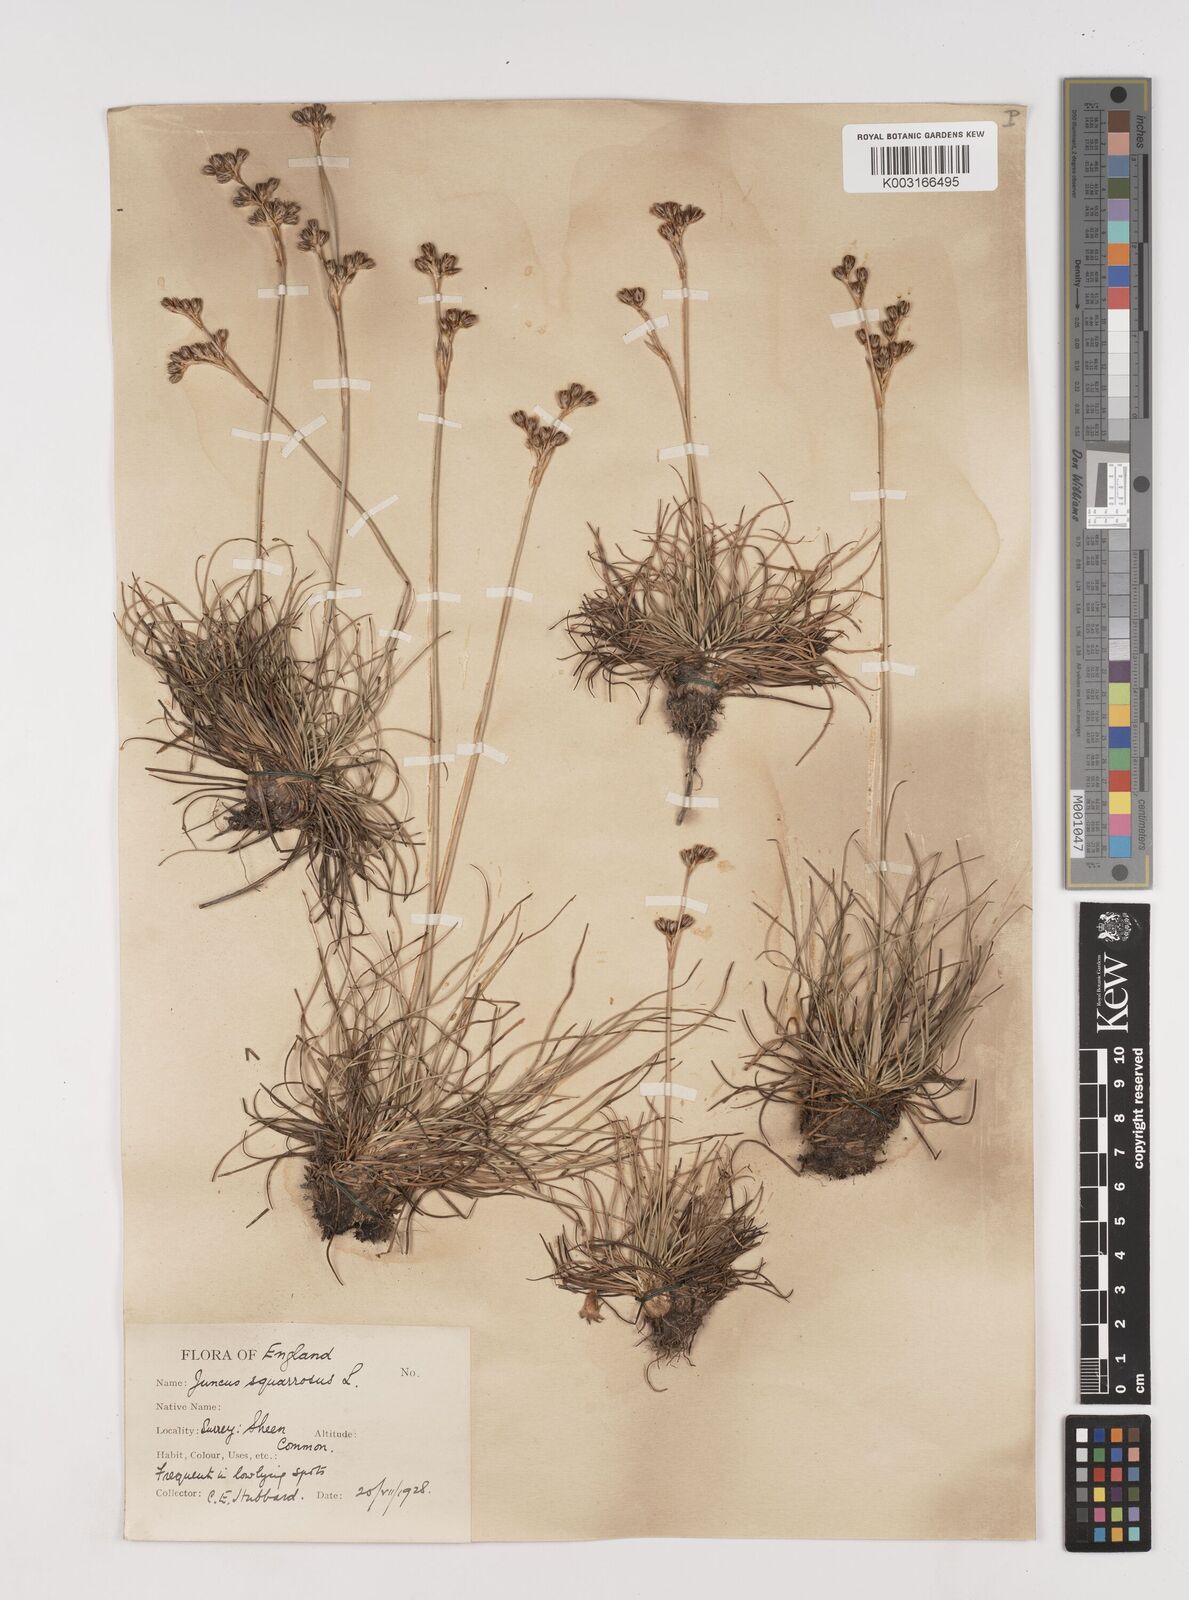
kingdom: Plantae
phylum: Tracheophyta
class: Liliopsida
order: Poales
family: Juncaceae
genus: Juncus
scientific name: Juncus squarrosus
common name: Heath rush
